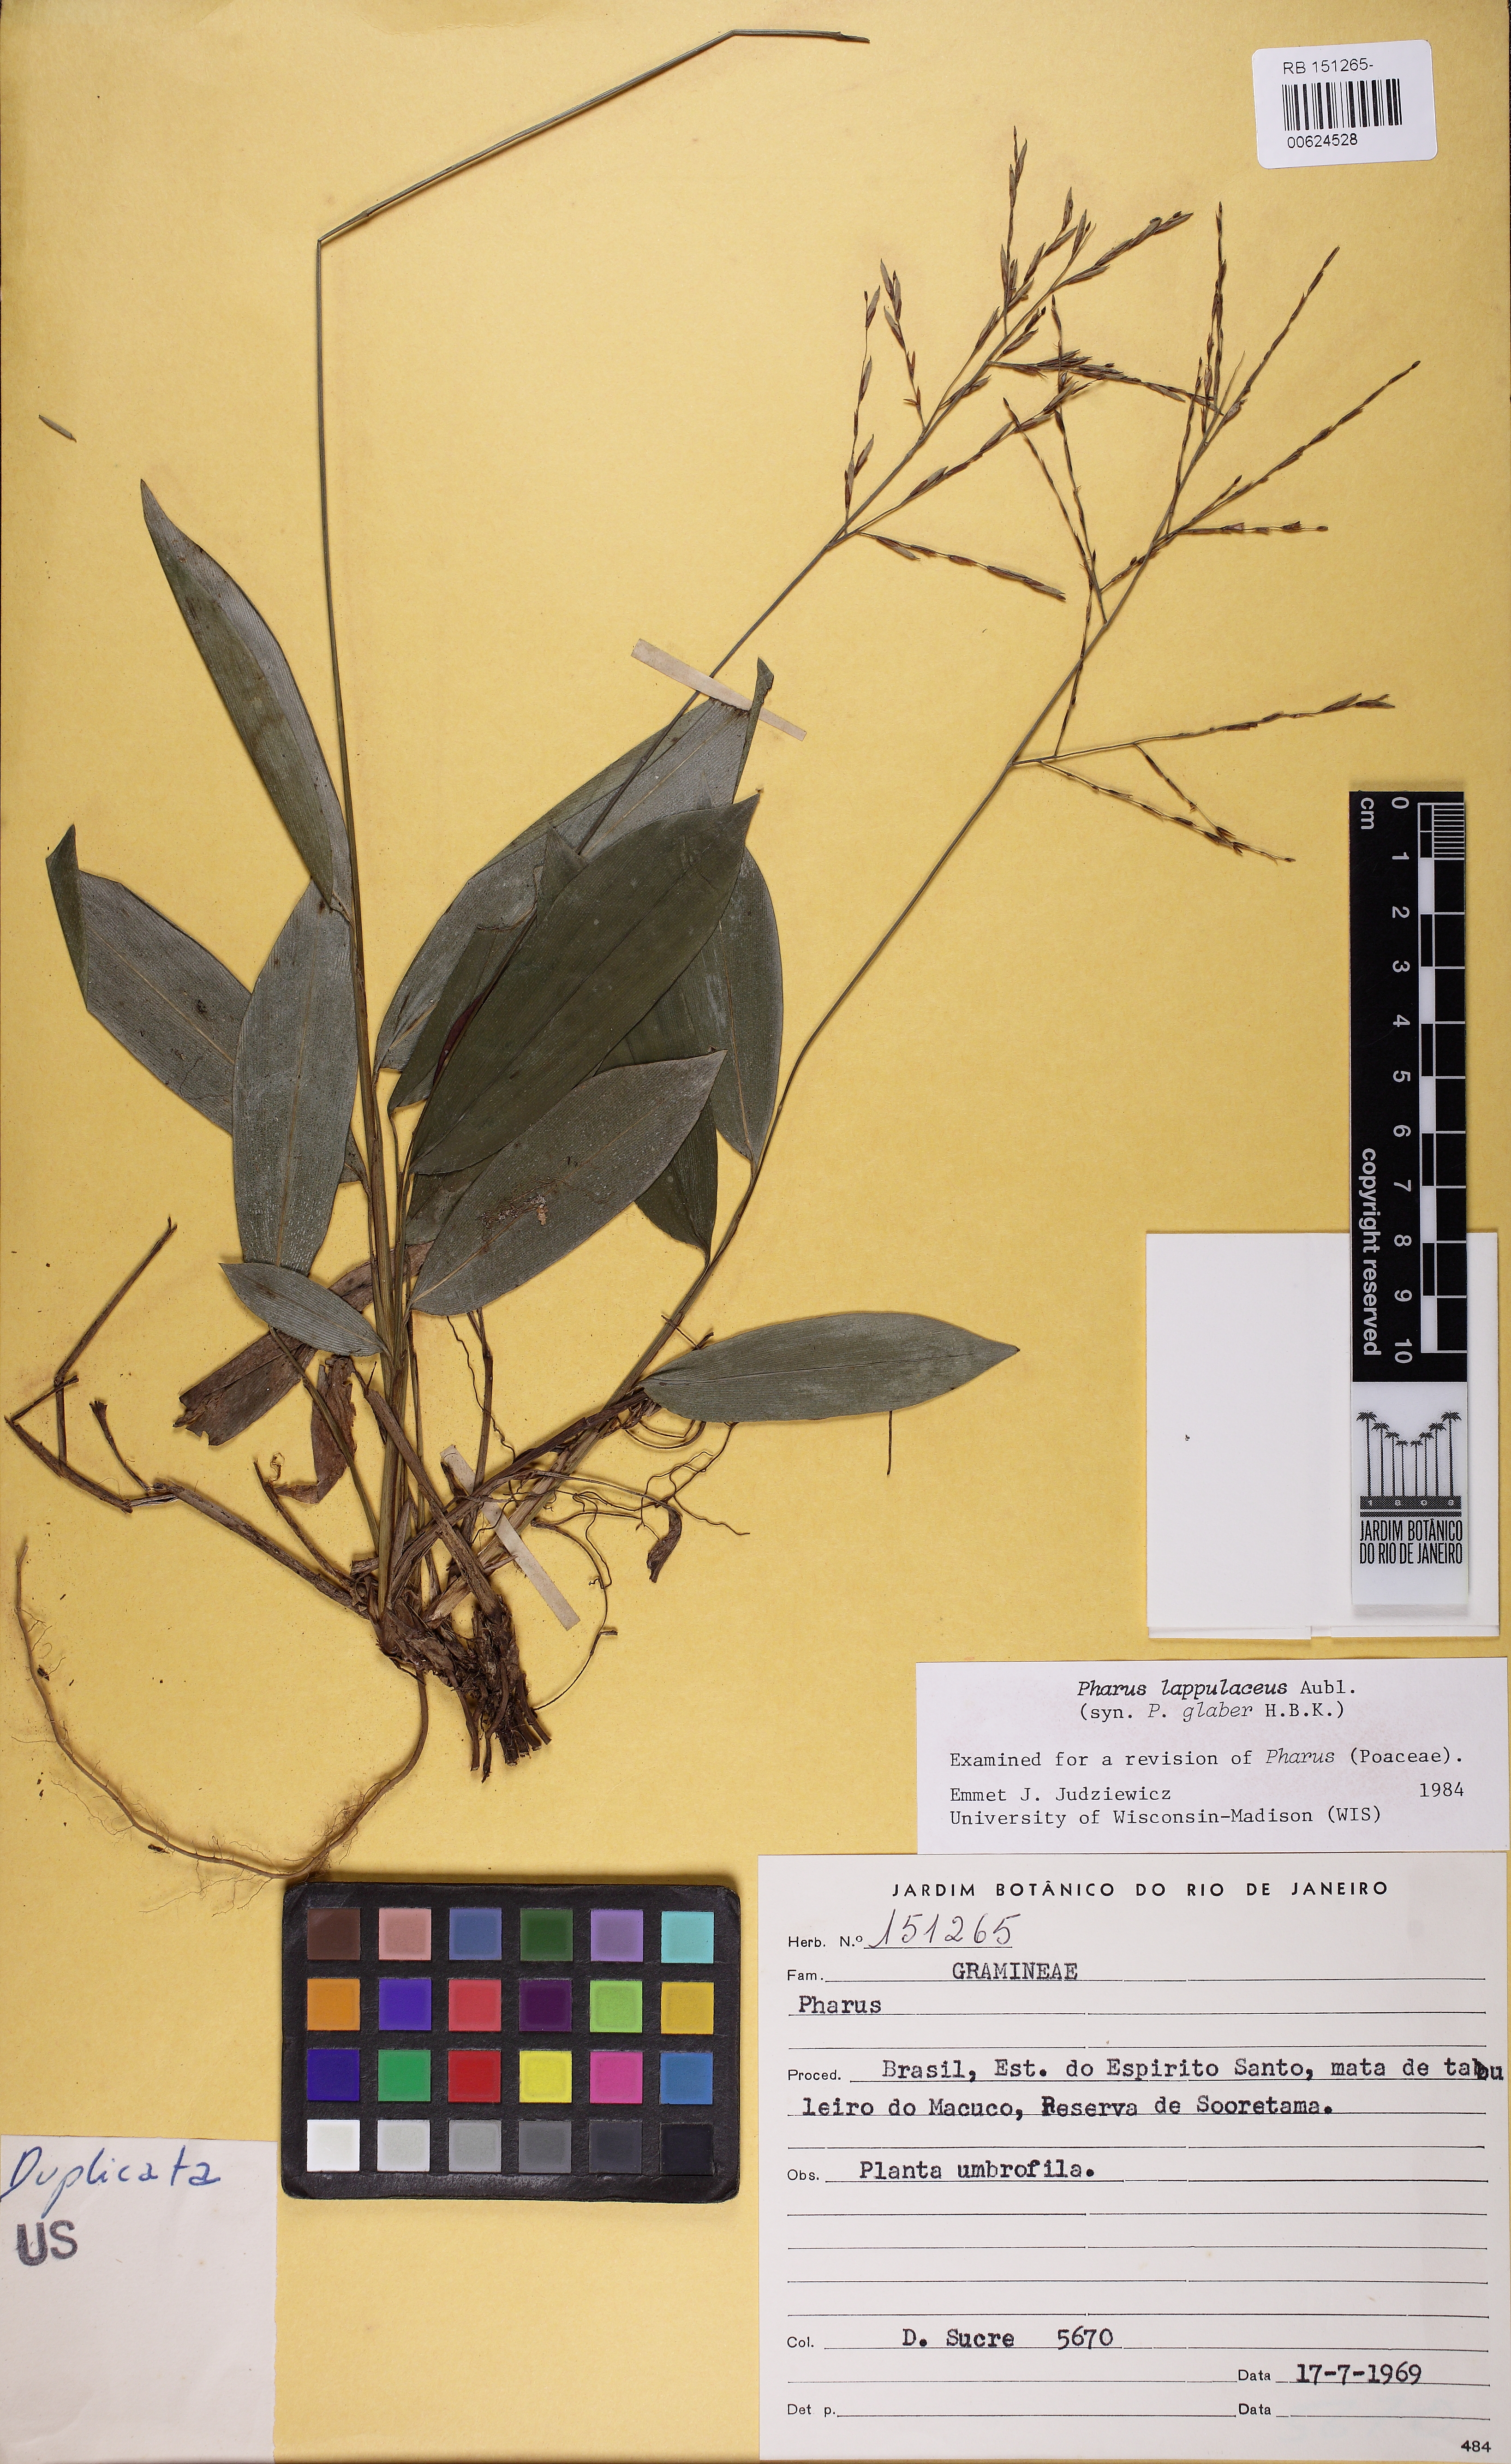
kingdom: Plantae
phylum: Tracheophyta
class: Liliopsida
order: Poales
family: Poaceae
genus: Pharus
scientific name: Pharus lappulaceus
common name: Creeping leafstalk grass
